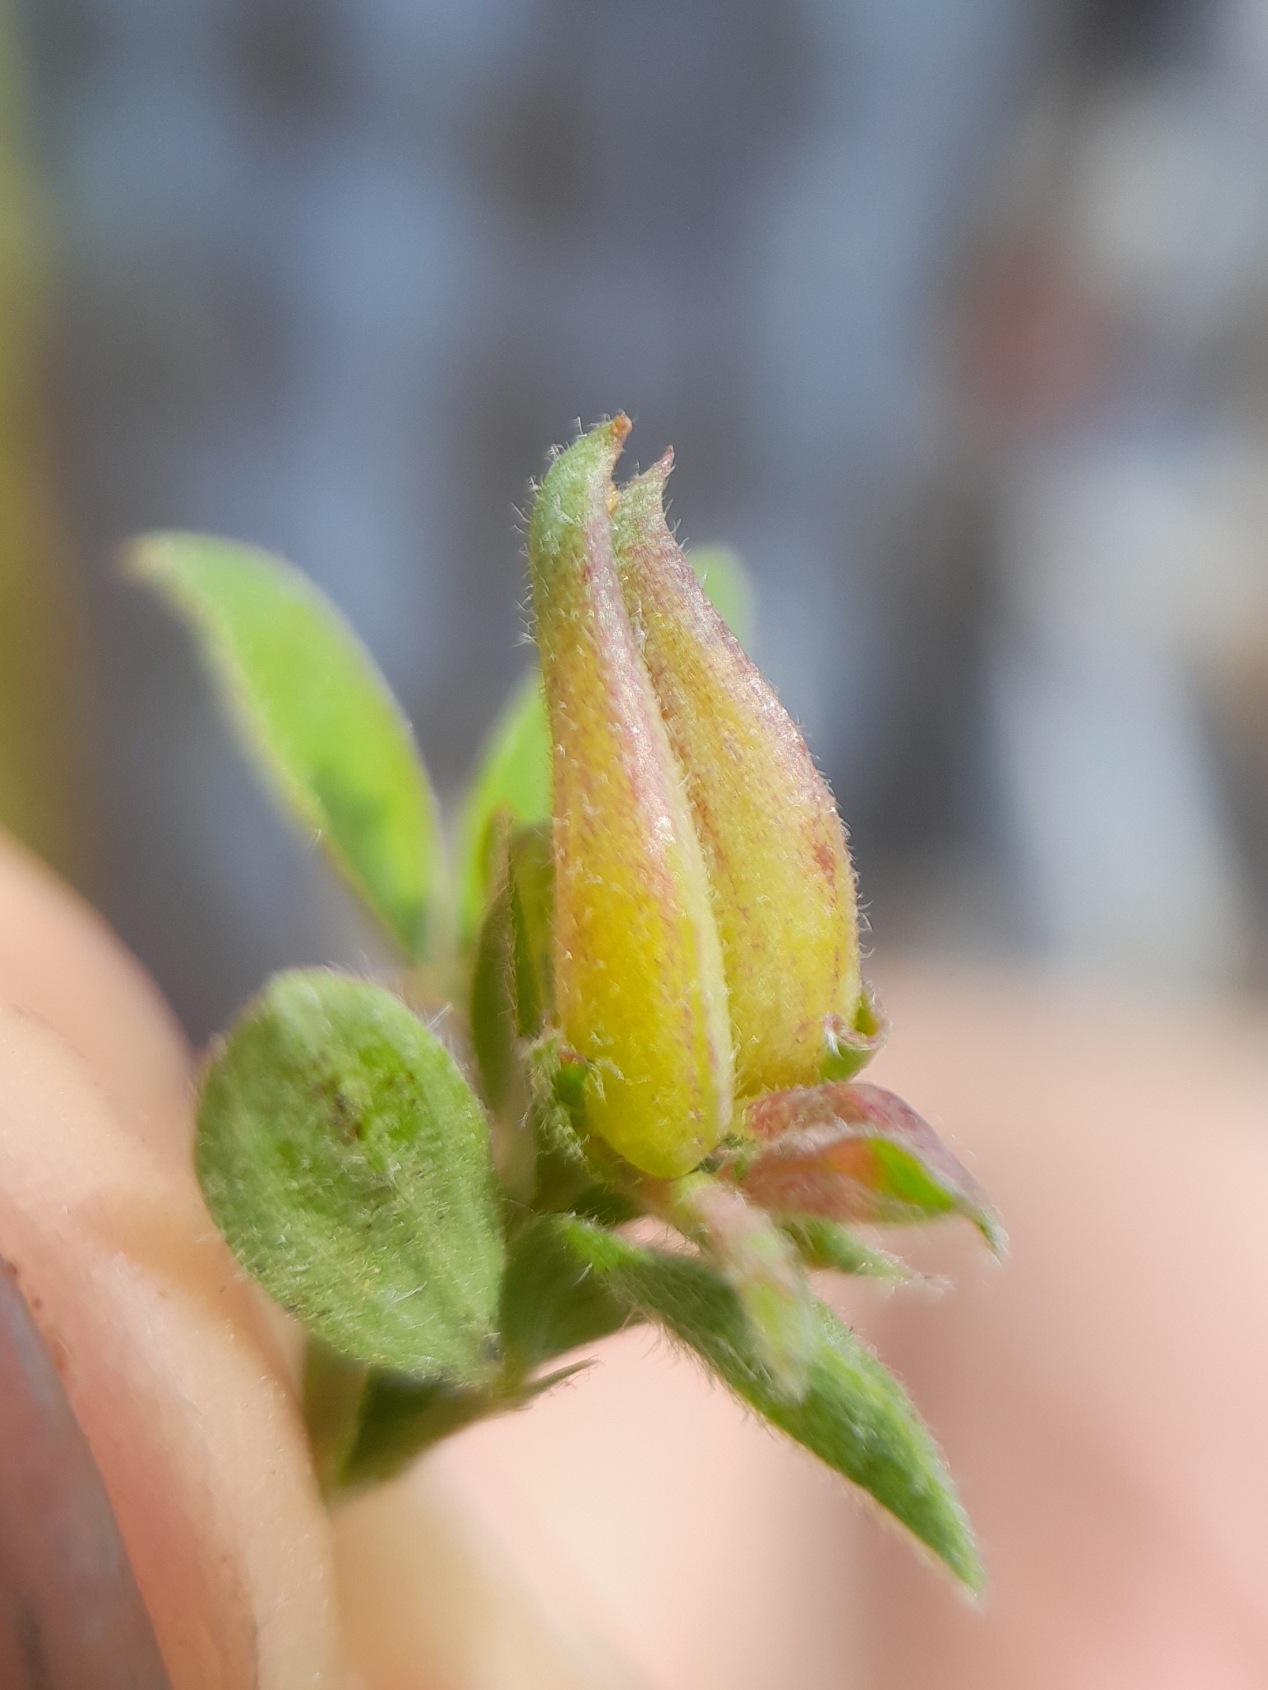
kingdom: Animalia
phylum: Arthropoda
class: Insecta
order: Diptera
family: Cecidomyiidae
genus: Dasineura
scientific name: Dasineura lathyri
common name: Fladbælgbladgalmyg
